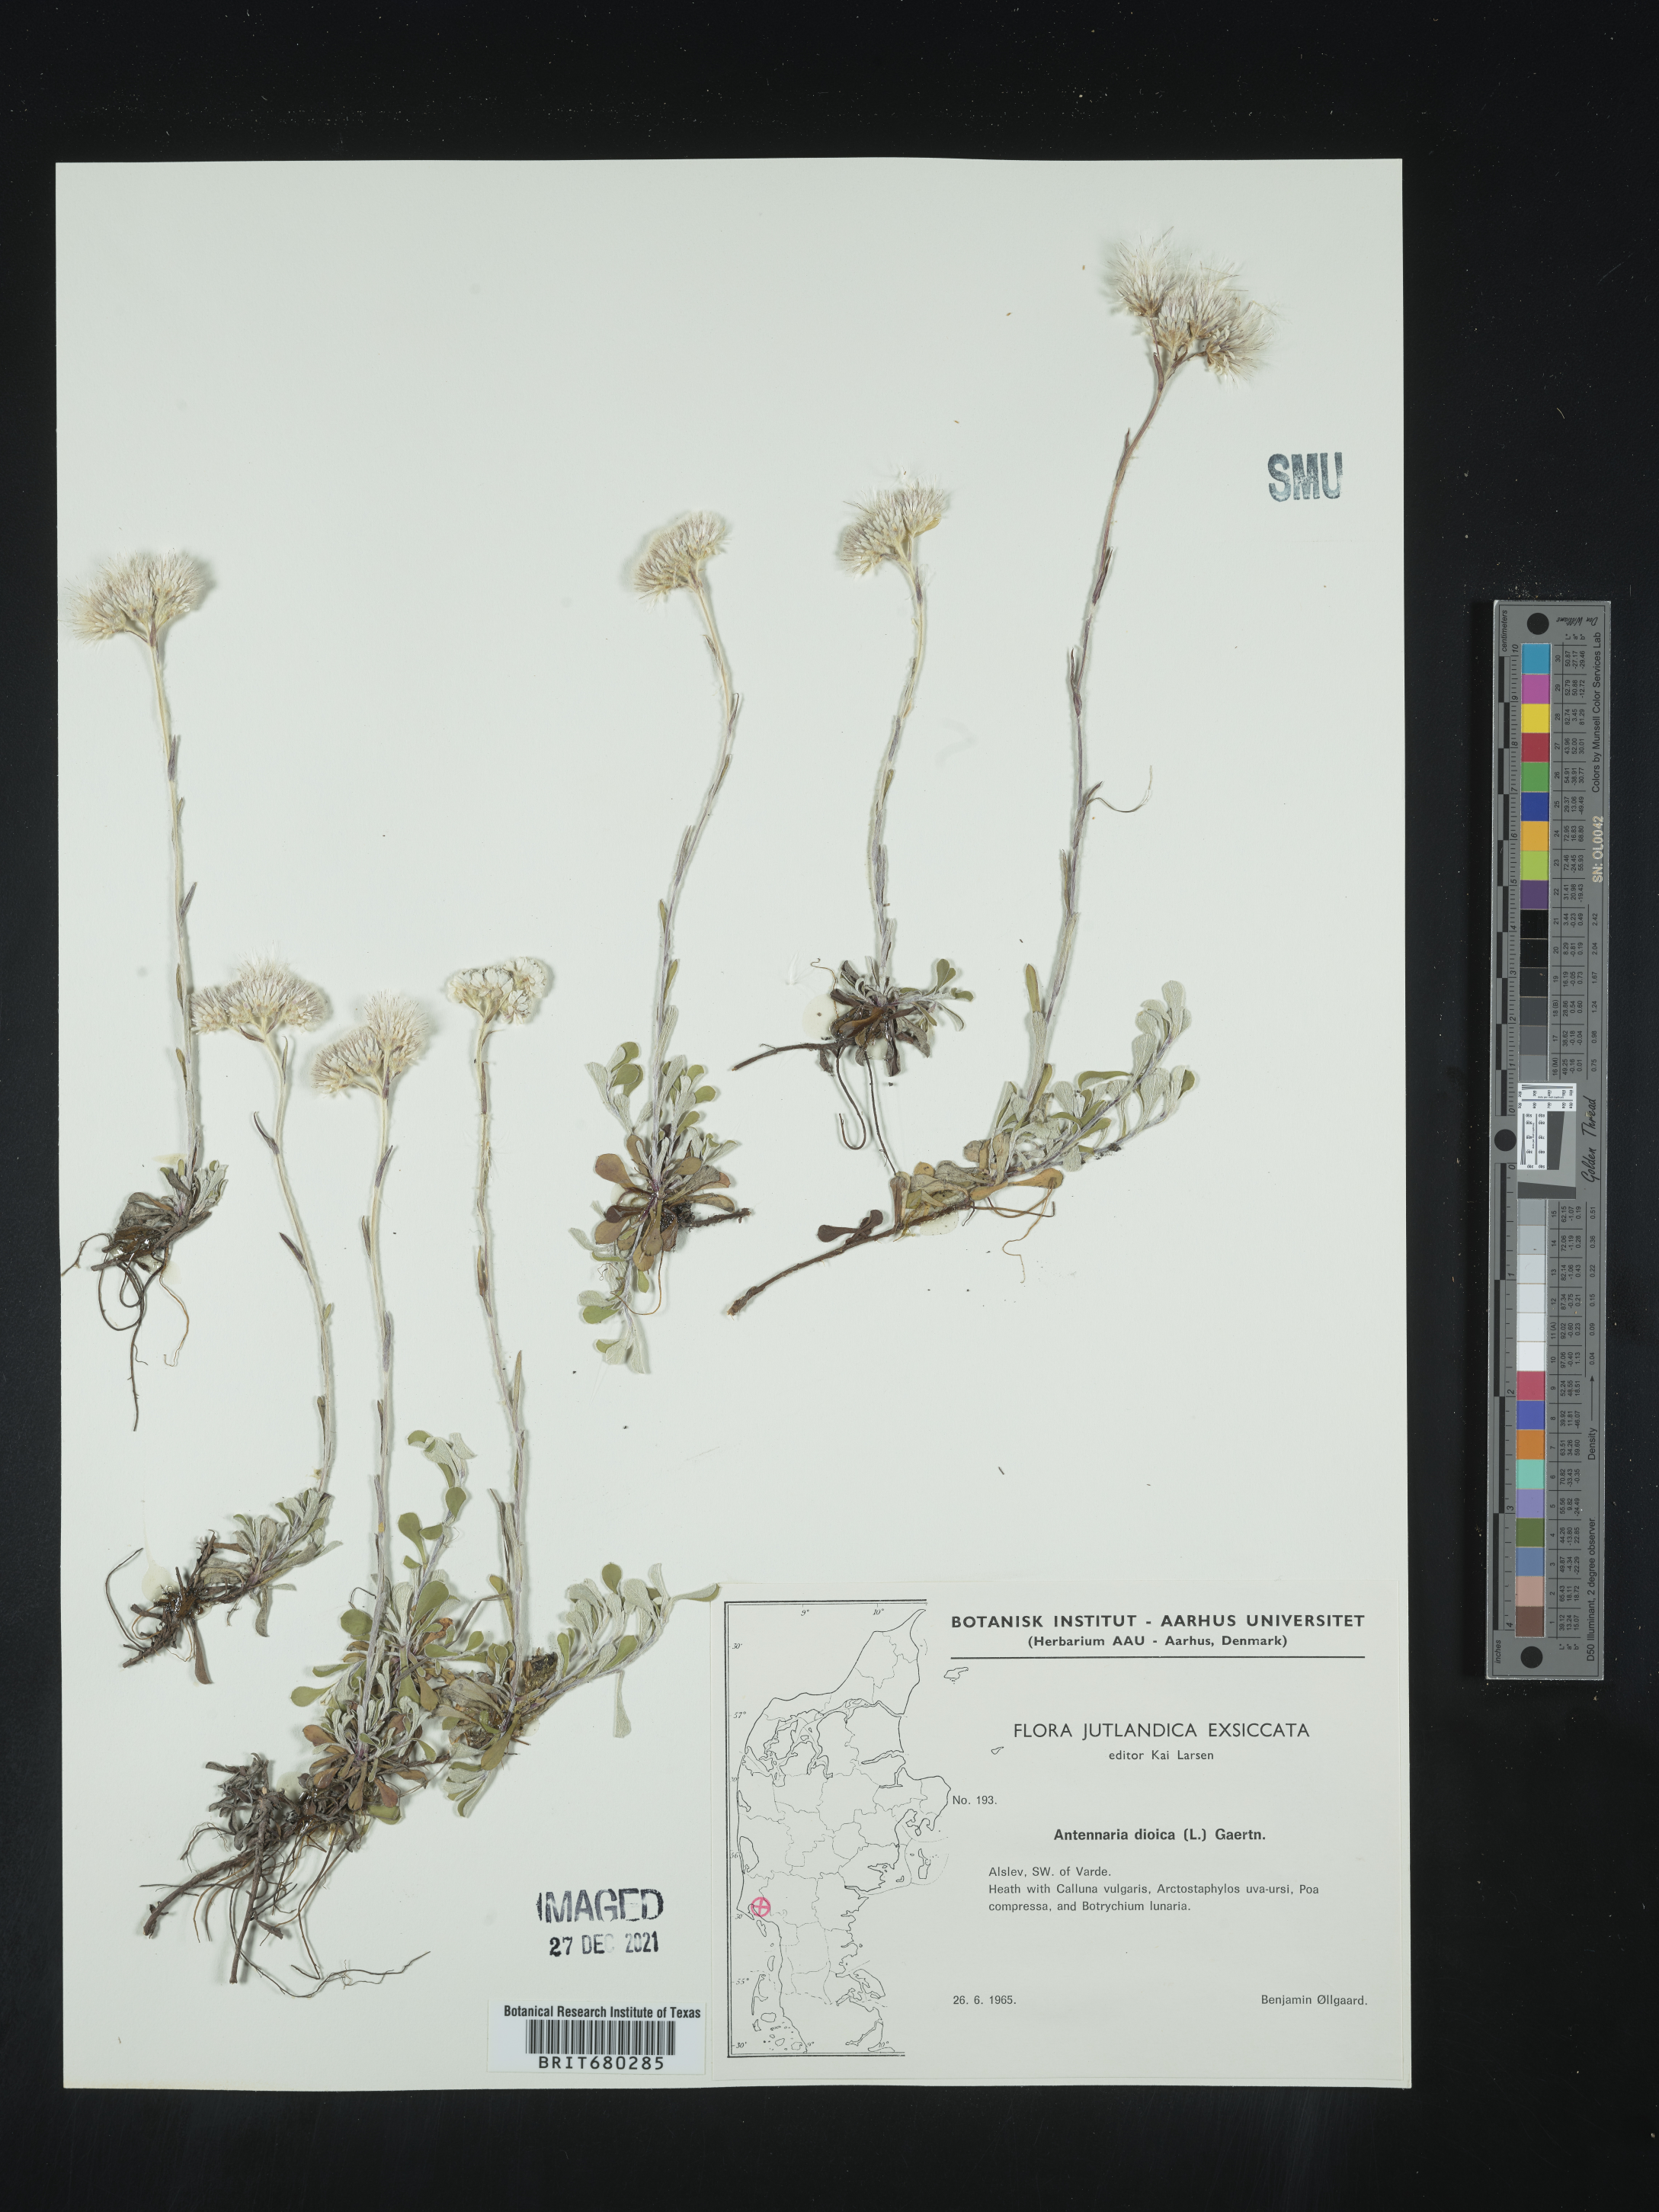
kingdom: Plantae
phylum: Tracheophyta
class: Magnoliopsida
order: Asterales
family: Asteraceae
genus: Antennaria
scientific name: Antennaria dioica
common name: Mountain everlasting
